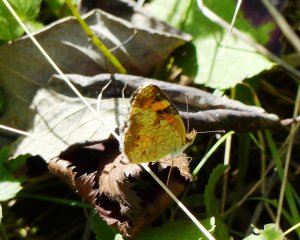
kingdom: Animalia
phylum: Arthropoda
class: Insecta
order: Lepidoptera
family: Nymphalidae
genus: Phyciodes
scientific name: Phyciodes tharos
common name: Northern Crescent
